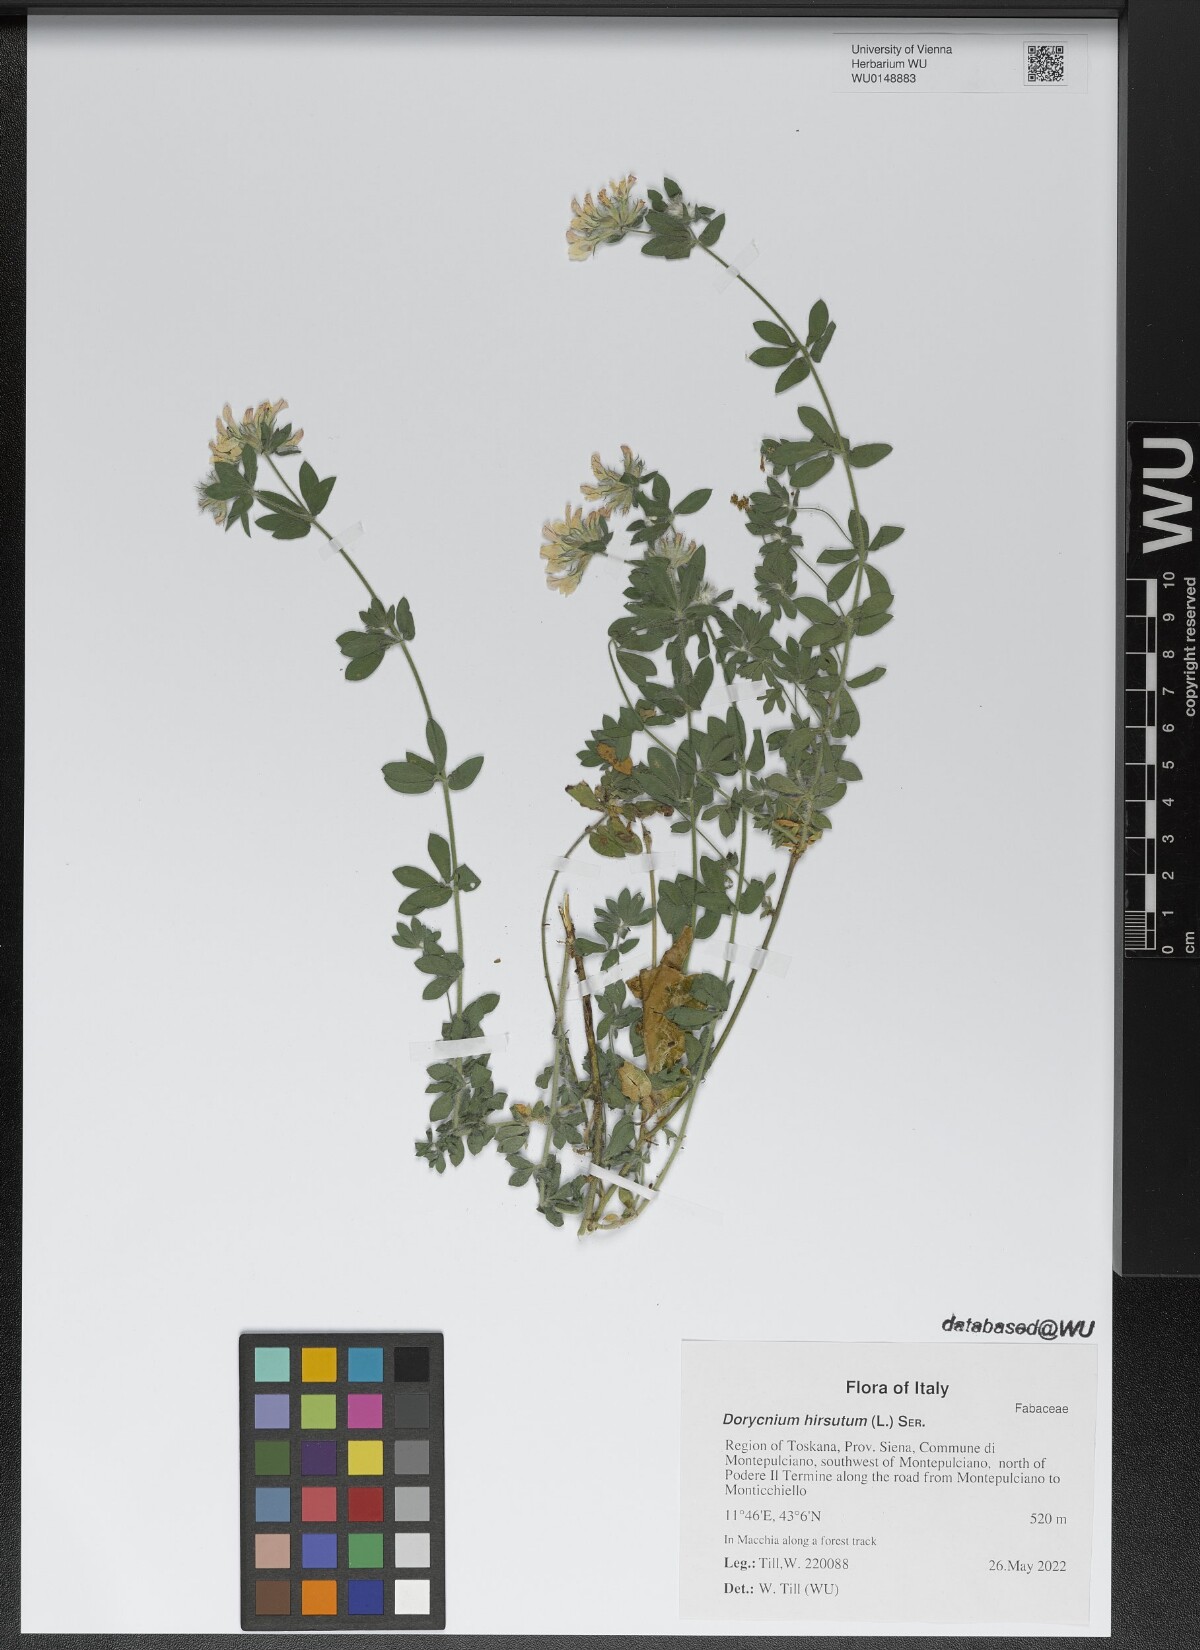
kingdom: Plantae
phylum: Tracheophyta
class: Magnoliopsida
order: Fabales
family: Fabaceae
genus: Lotus
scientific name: Lotus hirsutus
